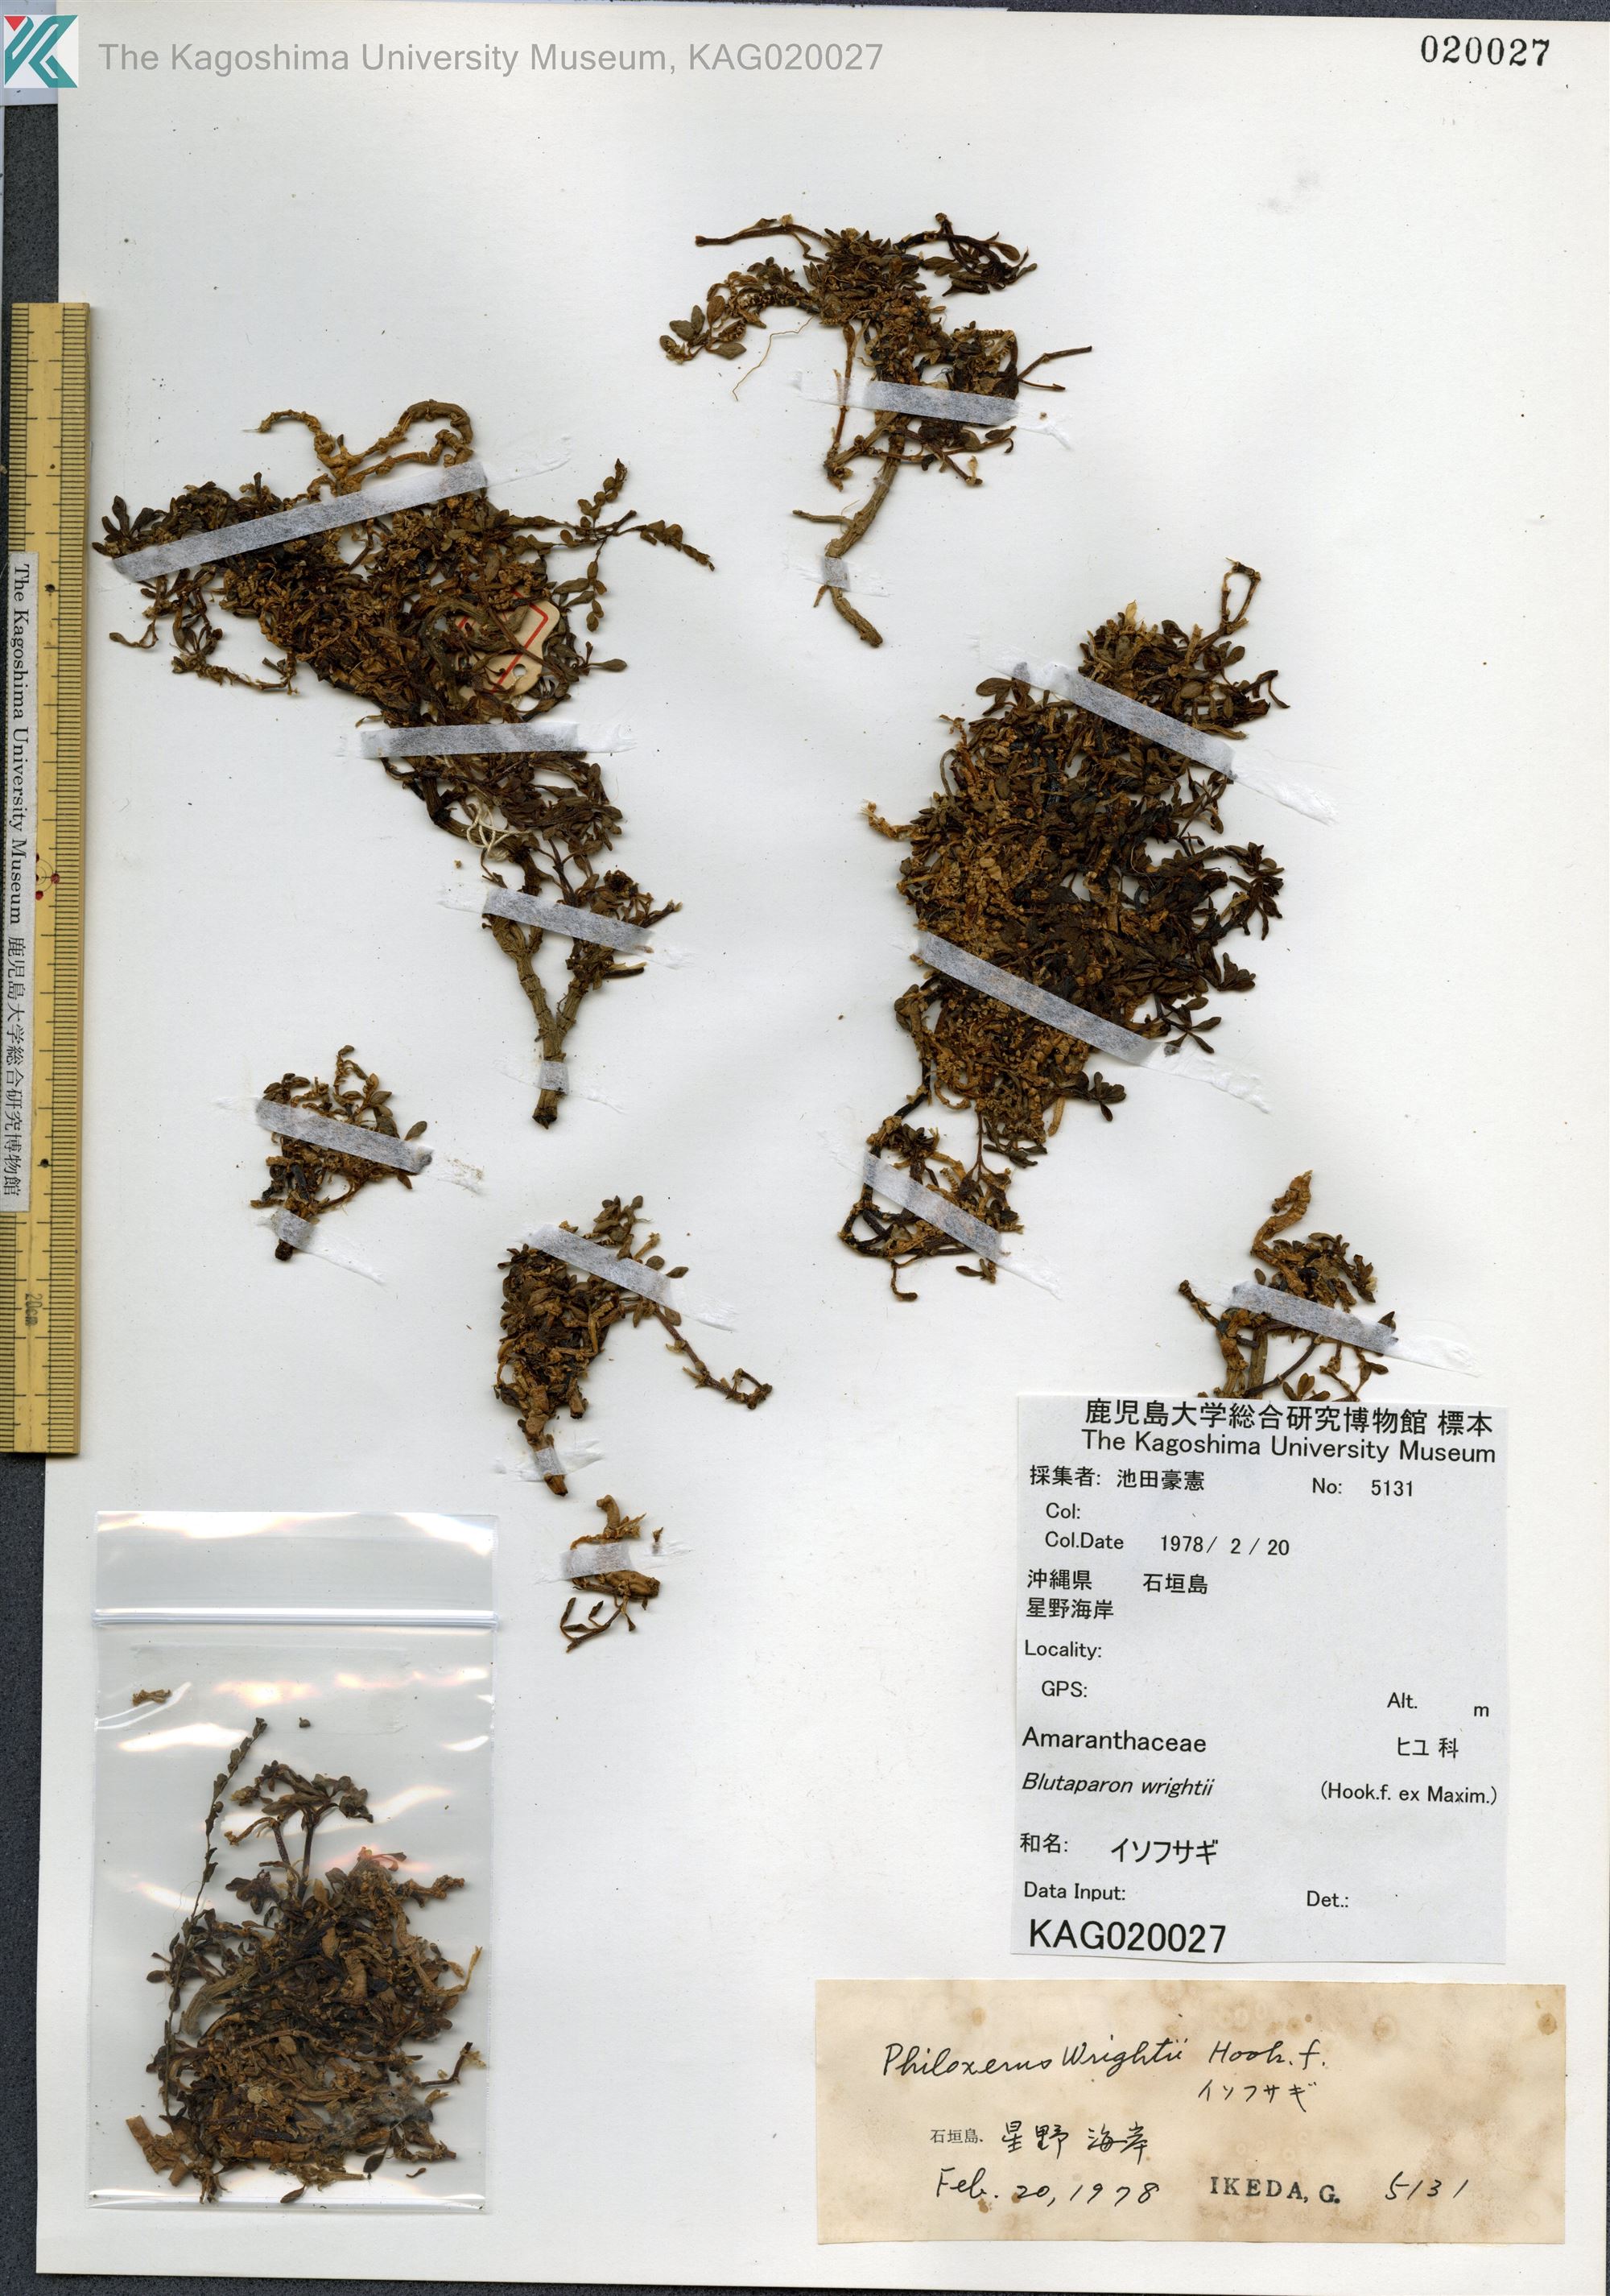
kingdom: Plantae
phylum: Tracheophyta
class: Magnoliopsida
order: Caryophyllales
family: Amaranthaceae
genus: Gomphrena
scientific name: Gomphrena wrightii
